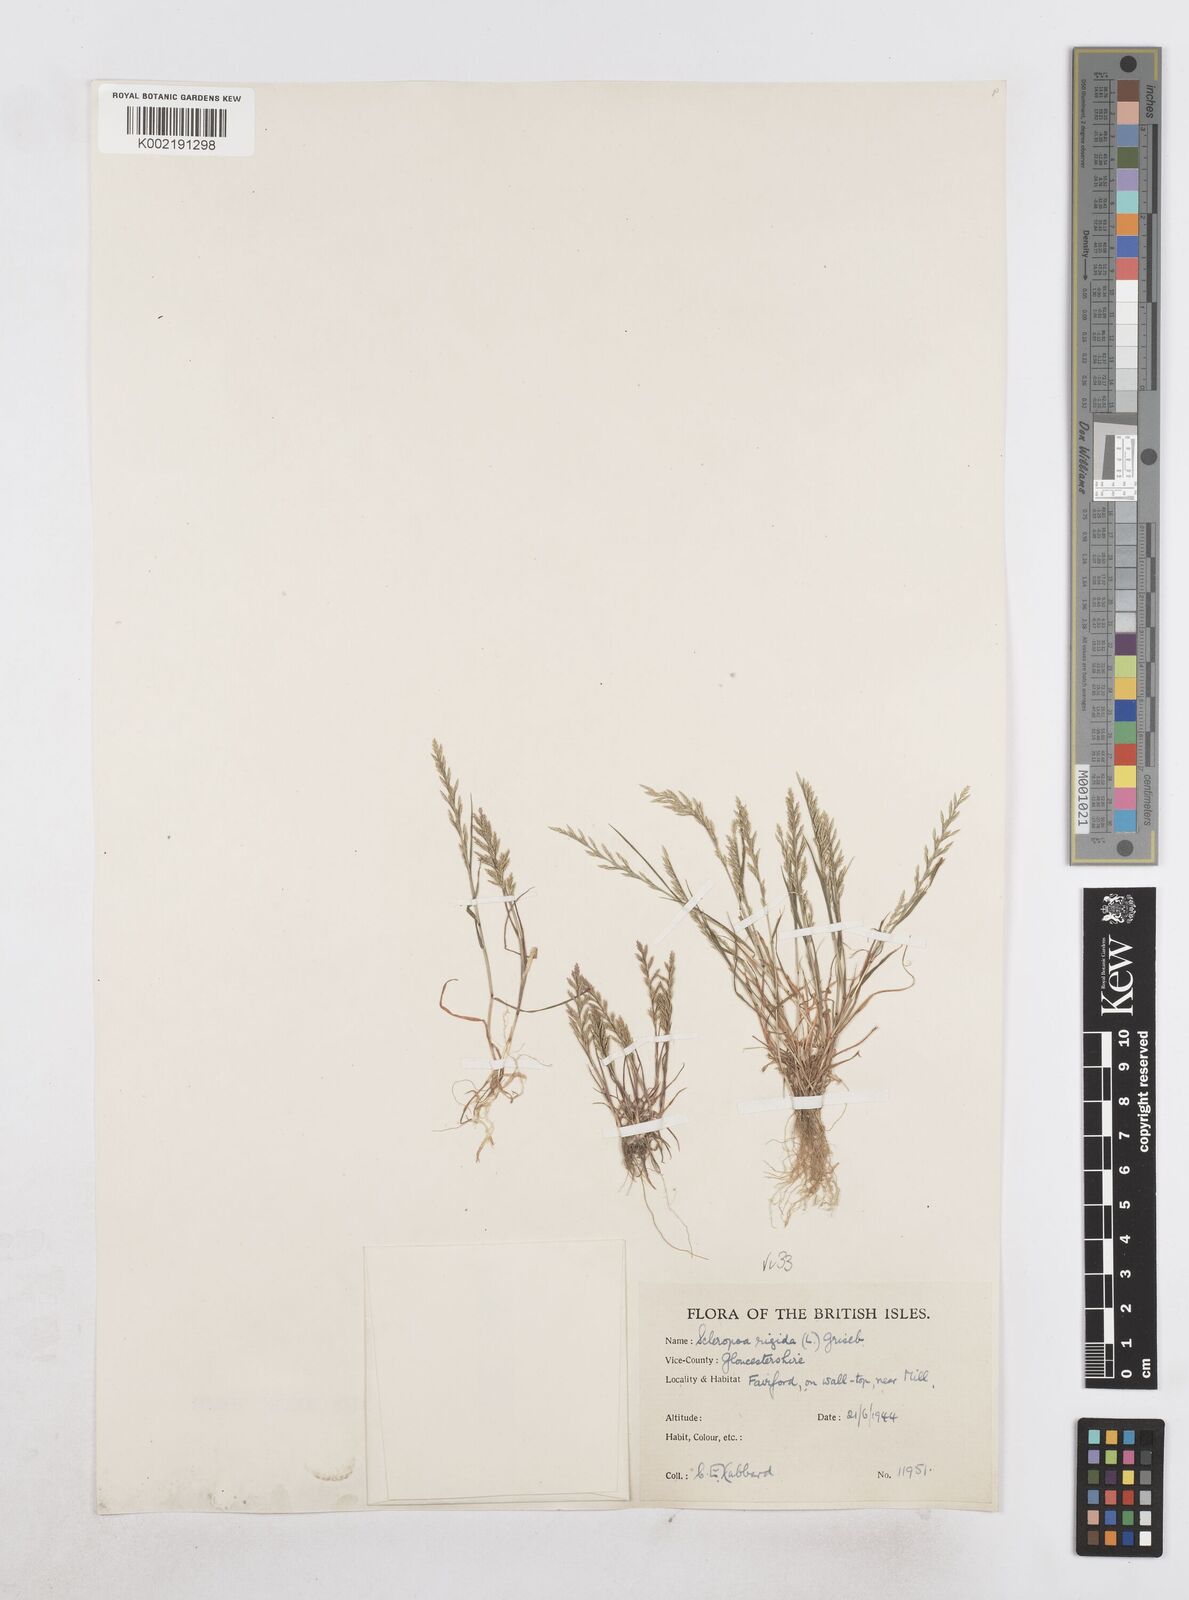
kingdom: Plantae
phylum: Tracheophyta
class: Liliopsida
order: Poales
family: Poaceae
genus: Catapodium
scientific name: Catapodium rigidum
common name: Fern-grass
